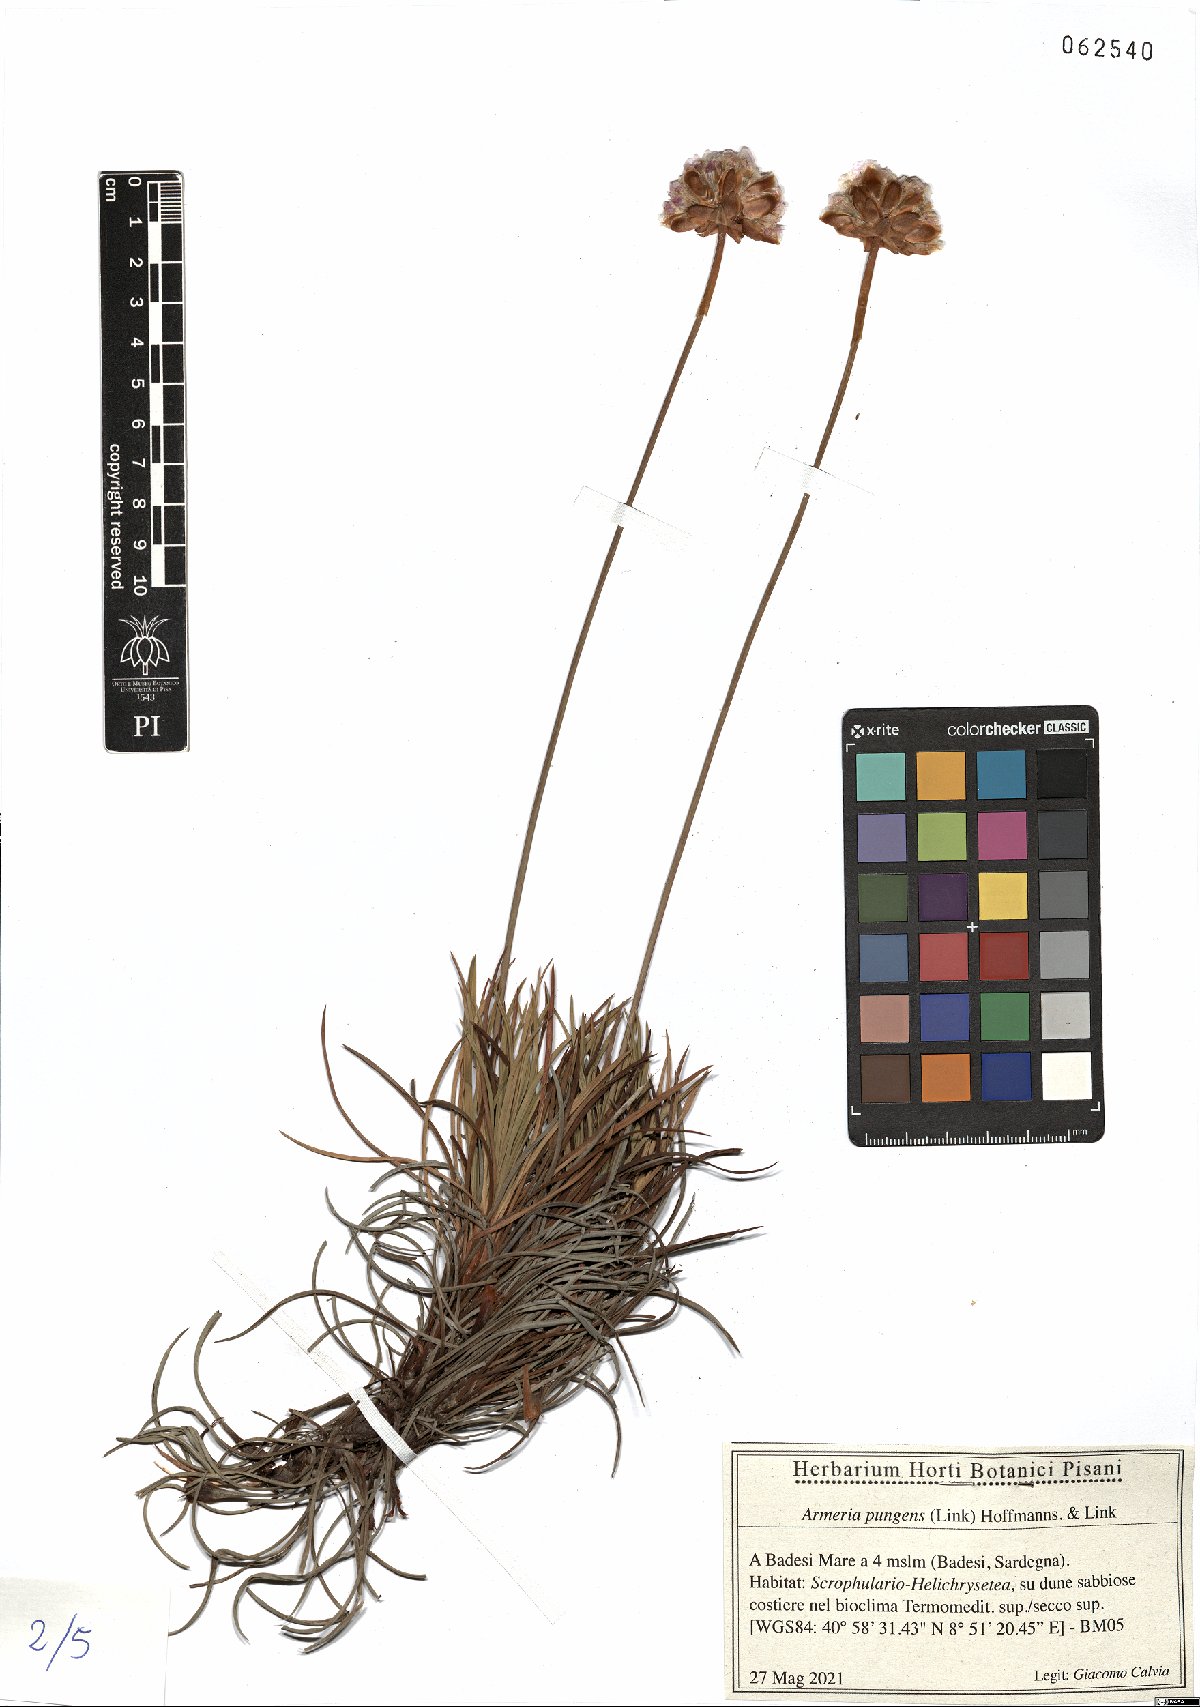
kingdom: Plantae
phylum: Tracheophyta
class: Magnoliopsida
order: Caryophyllales
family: Plumbaginaceae
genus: Armeria
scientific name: Armeria pungens
